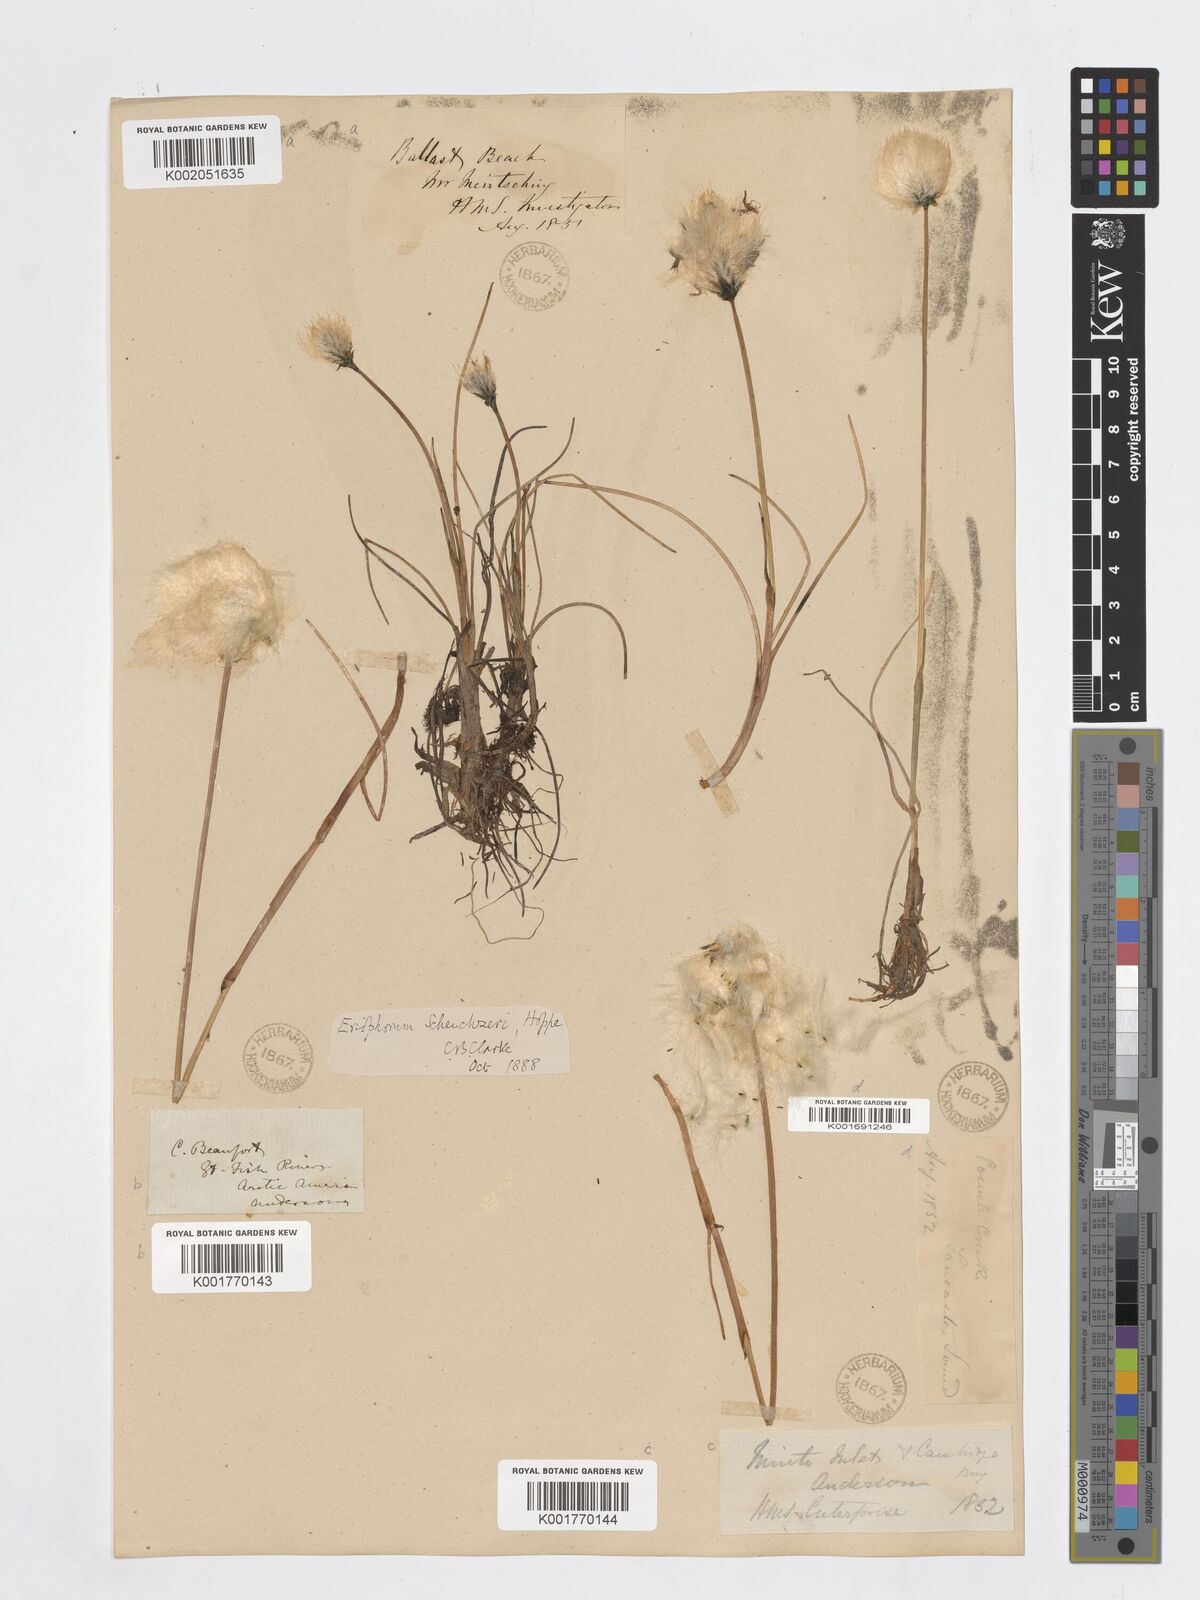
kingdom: Plantae
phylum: Tracheophyta
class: Liliopsida
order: Poales
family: Cyperaceae
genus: Eriophorum
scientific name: Eriophorum scheuchzeri
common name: Scheuchzer's cottongrass
